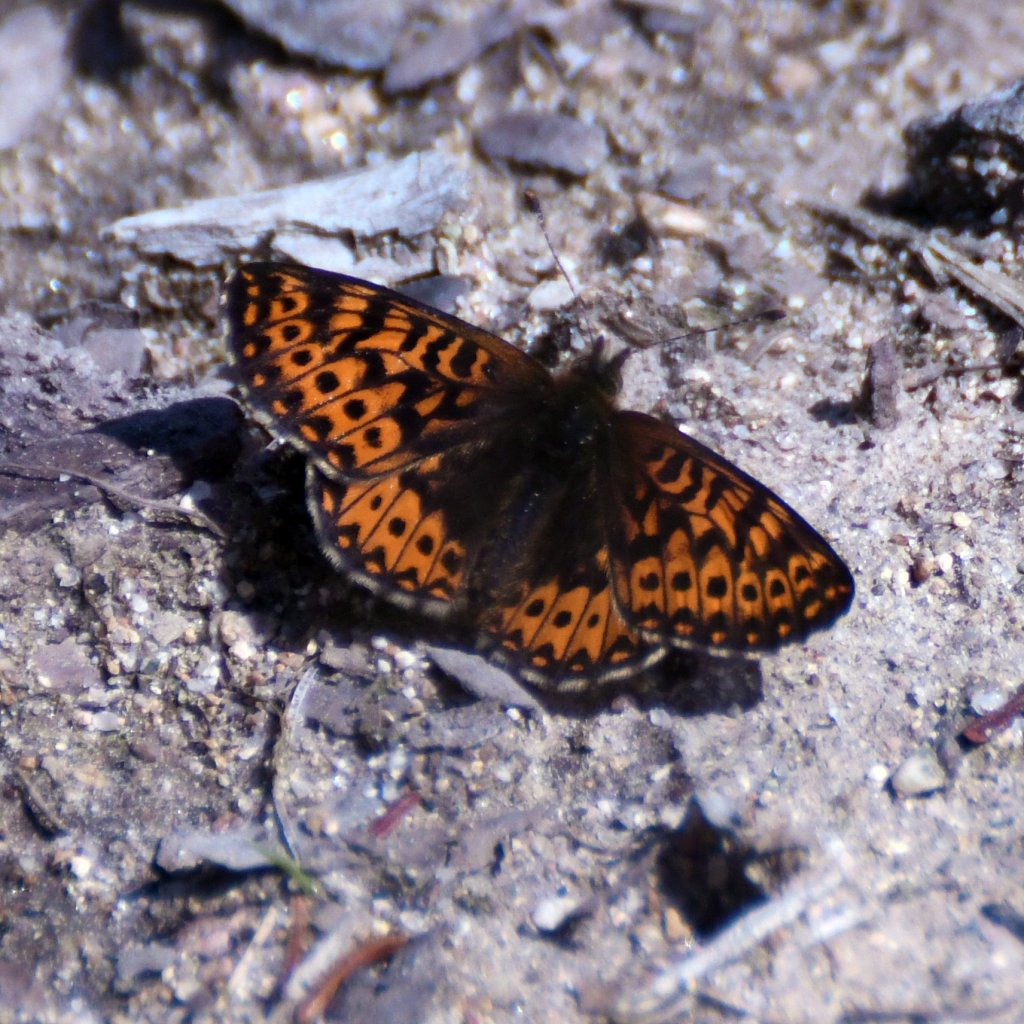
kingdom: Animalia
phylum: Arthropoda
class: Insecta
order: Lepidoptera
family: Nymphalidae
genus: Boloria
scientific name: Boloria freija
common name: Freija Fritillary
